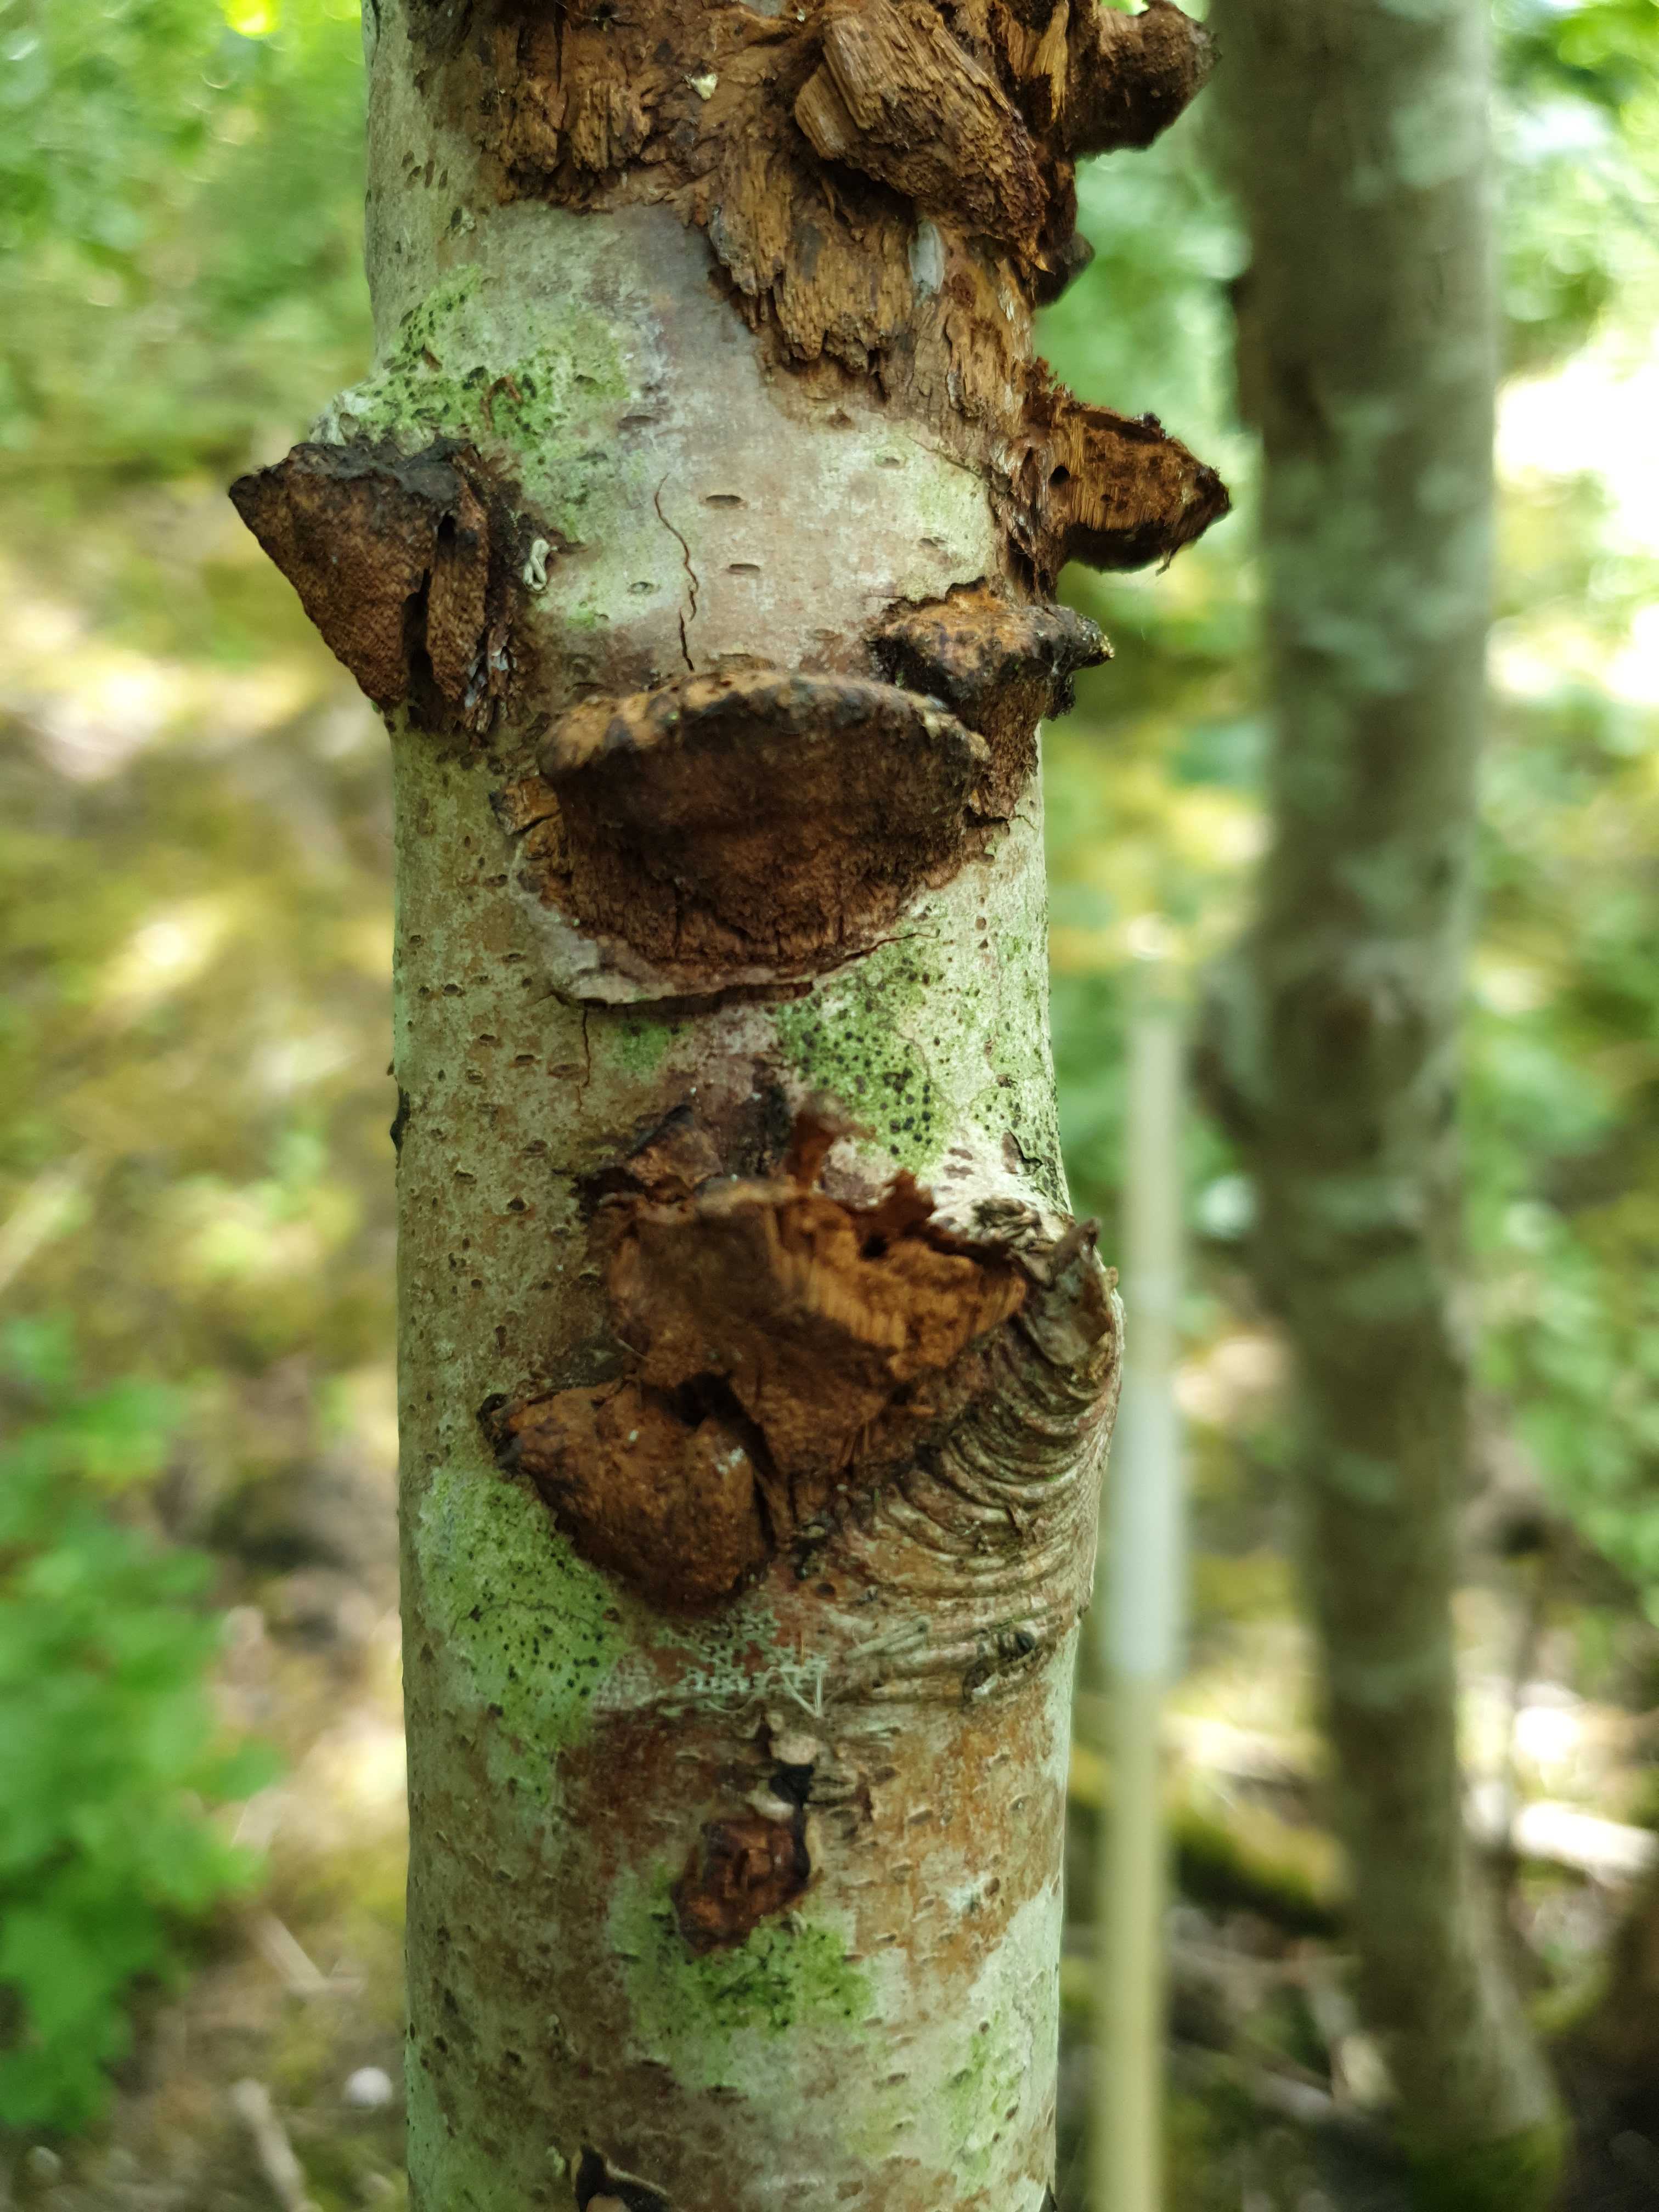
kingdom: Fungi
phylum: Basidiomycota
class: Agaricomycetes
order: Hymenochaetales
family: Hymenochaetaceae
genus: Xanthoporia
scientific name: Xanthoporia radiata
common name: elle-spejlporesvamp
